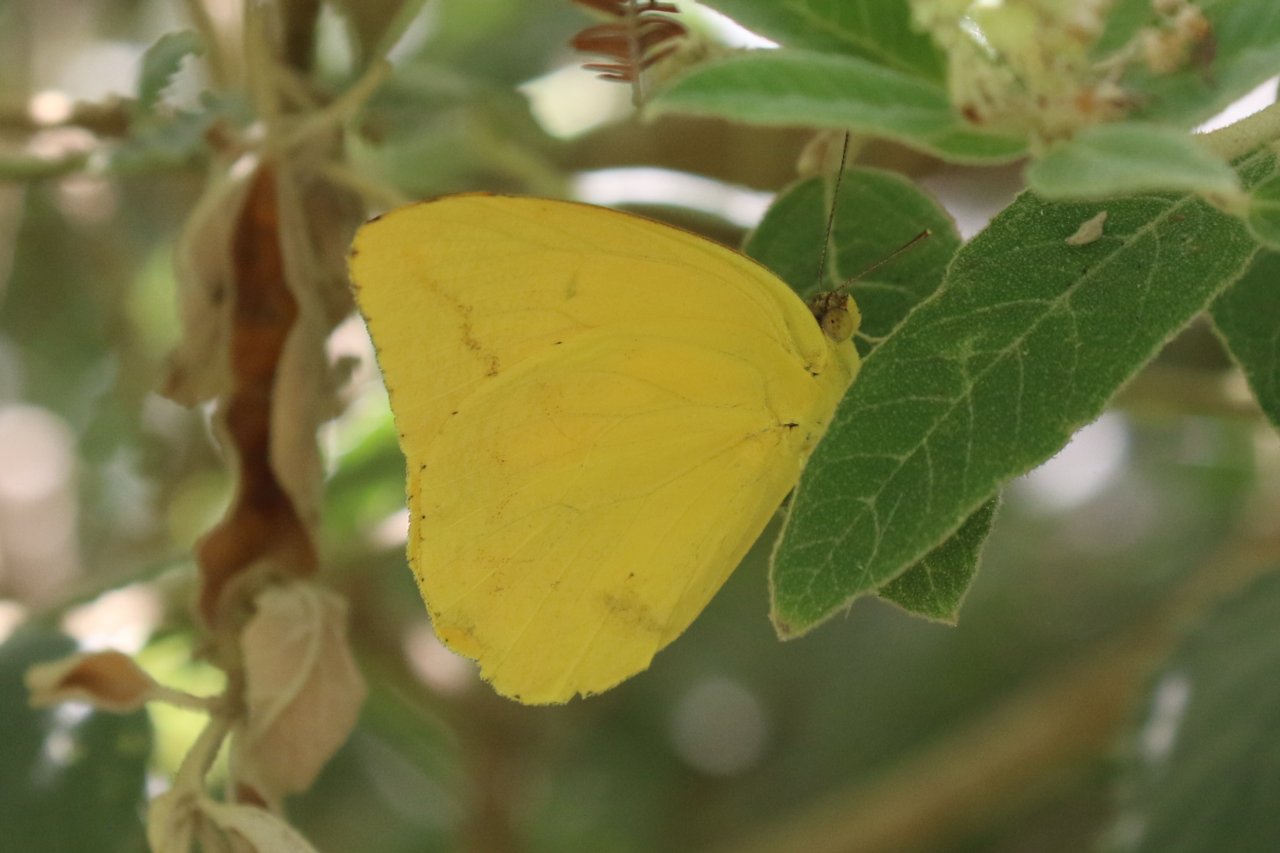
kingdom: Animalia
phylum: Arthropoda
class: Insecta
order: Lepidoptera
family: Pieridae
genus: Phoebis
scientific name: Phoebis agarithe
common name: Large Orange Sulphur
